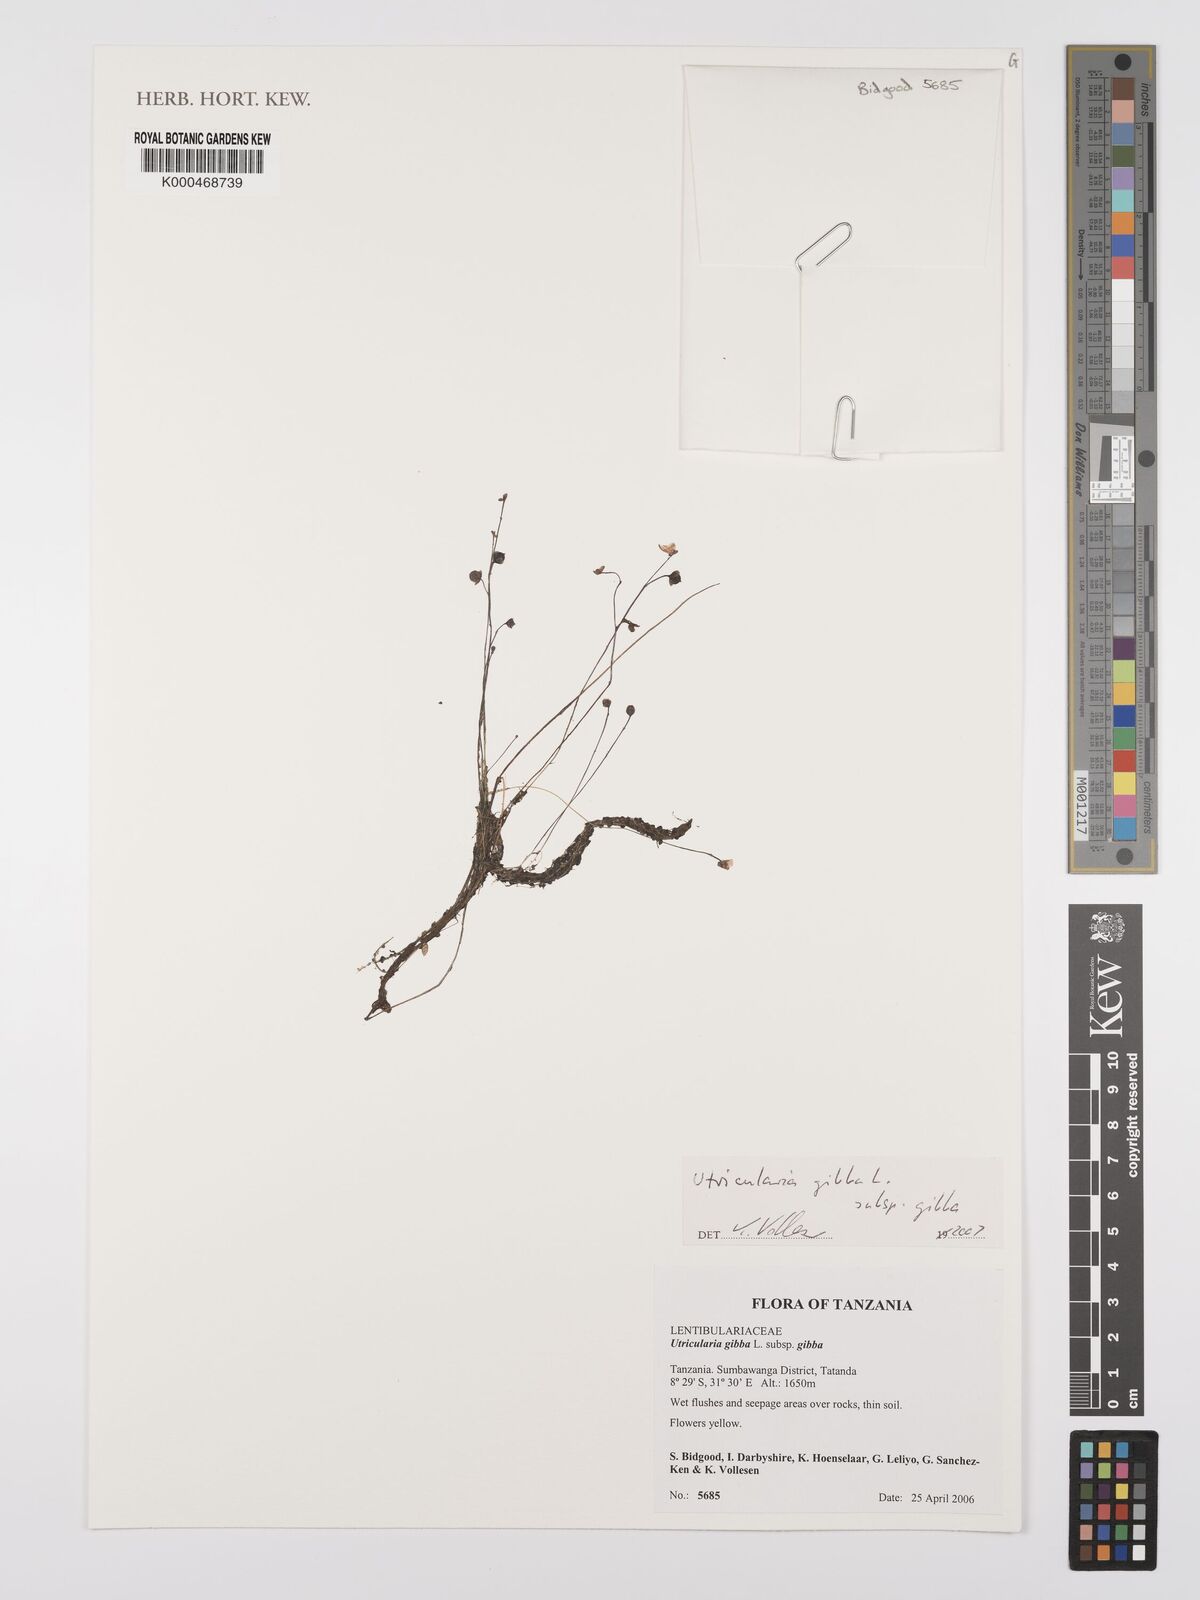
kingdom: Plantae
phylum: Tracheophyta
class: Magnoliopsida
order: Lamiales
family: Lentibulariaceae
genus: Utricularia
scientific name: Utricularia gibba
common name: Humped bladderwort
